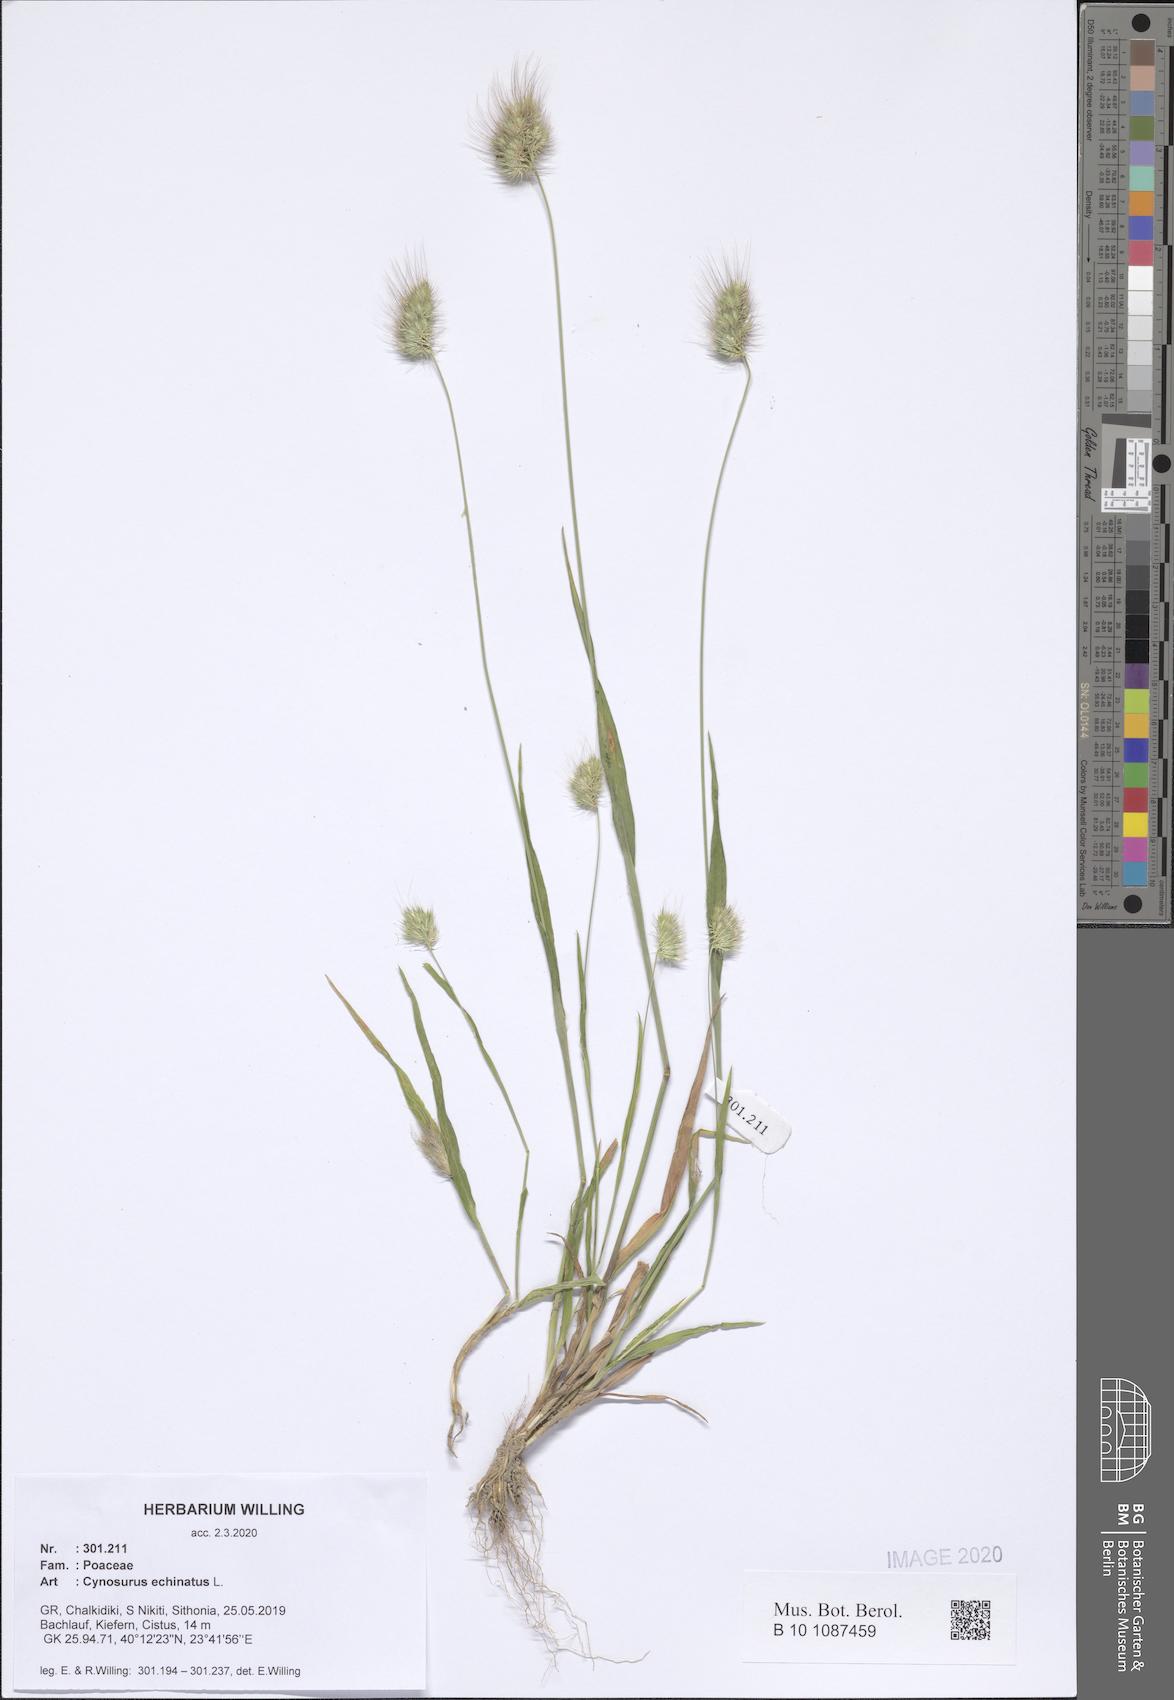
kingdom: Plantae
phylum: Tracheophyta
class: Liliopsida
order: Poales
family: Poaceae
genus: Cynosurus
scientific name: Cynosurus echinatus
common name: Rough dog's-tail
